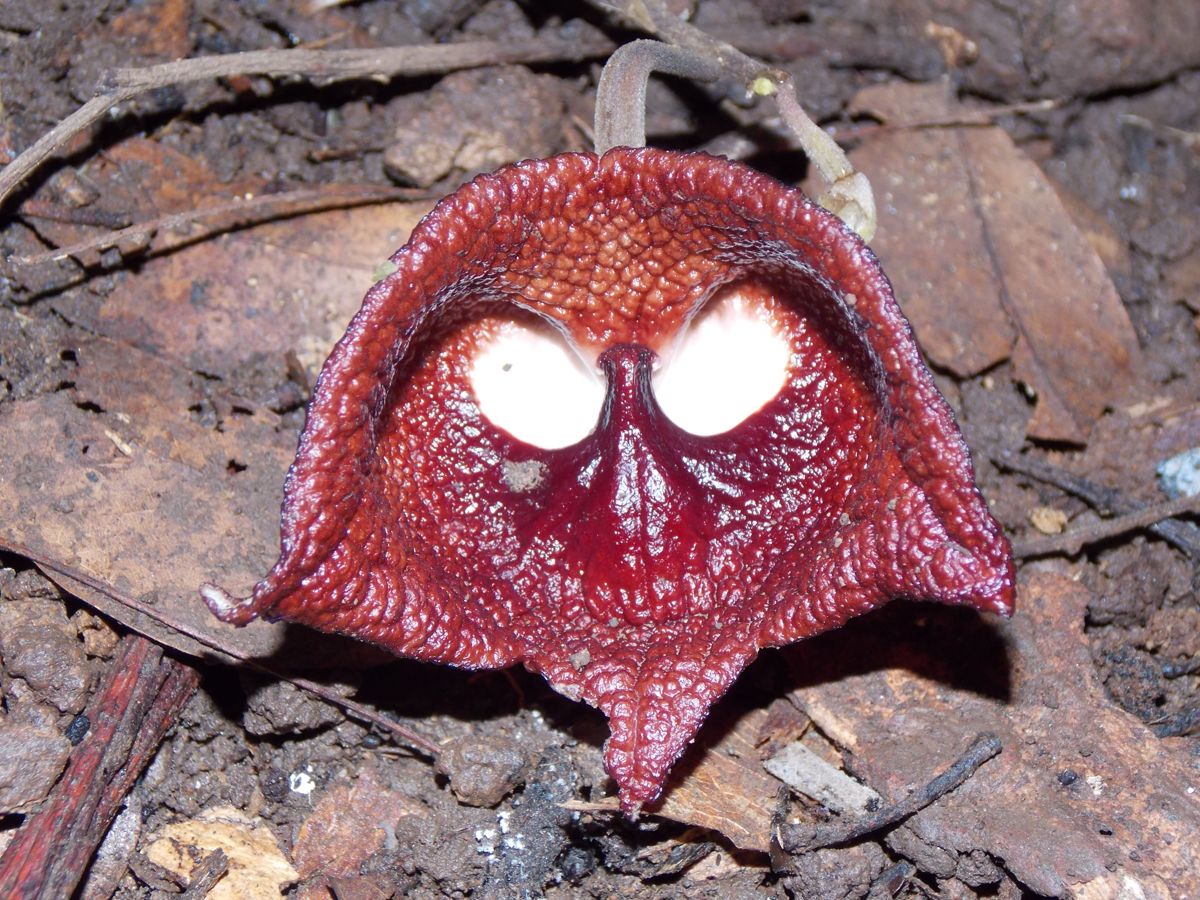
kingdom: Plantae
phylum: Tracheophyta
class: Magnoliopsida
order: Piperales
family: Aristolochiaceae
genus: Isotrema
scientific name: Isotrema arborea
